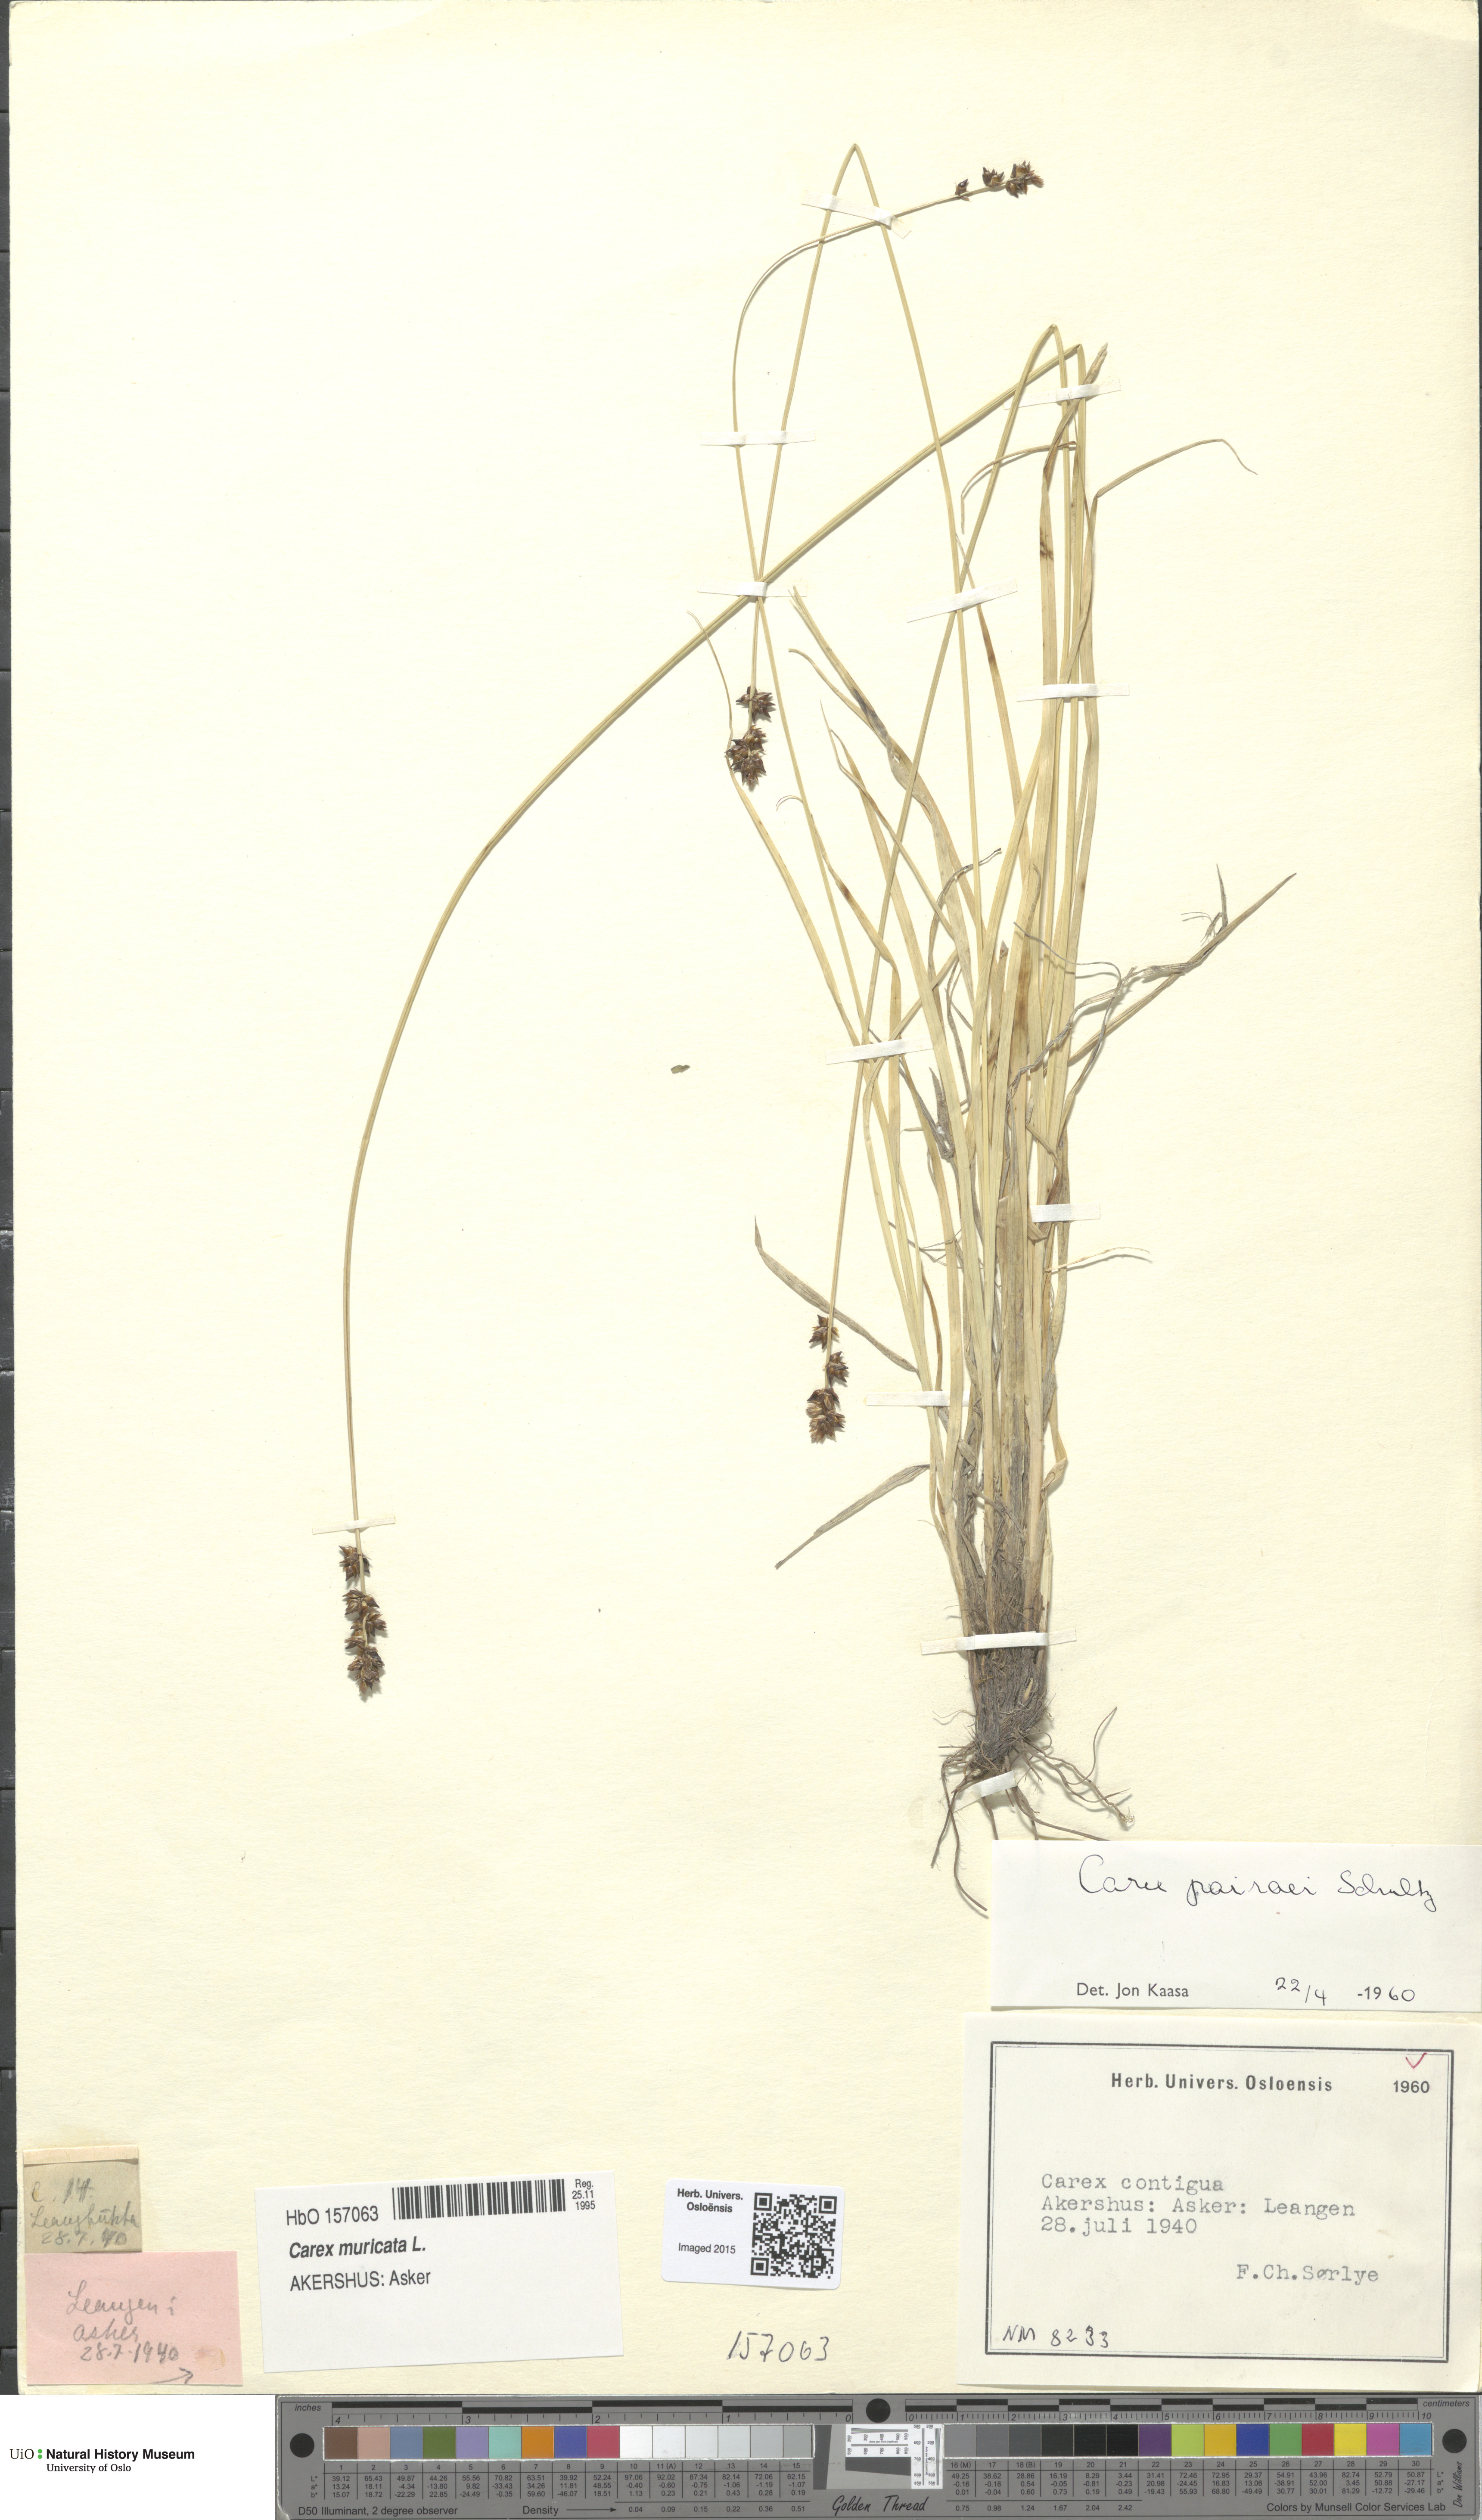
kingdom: Plantae
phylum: Tracheophyta
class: Liliopsida
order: Poales
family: Cyperaceae
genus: Carex
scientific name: Carex pairae
